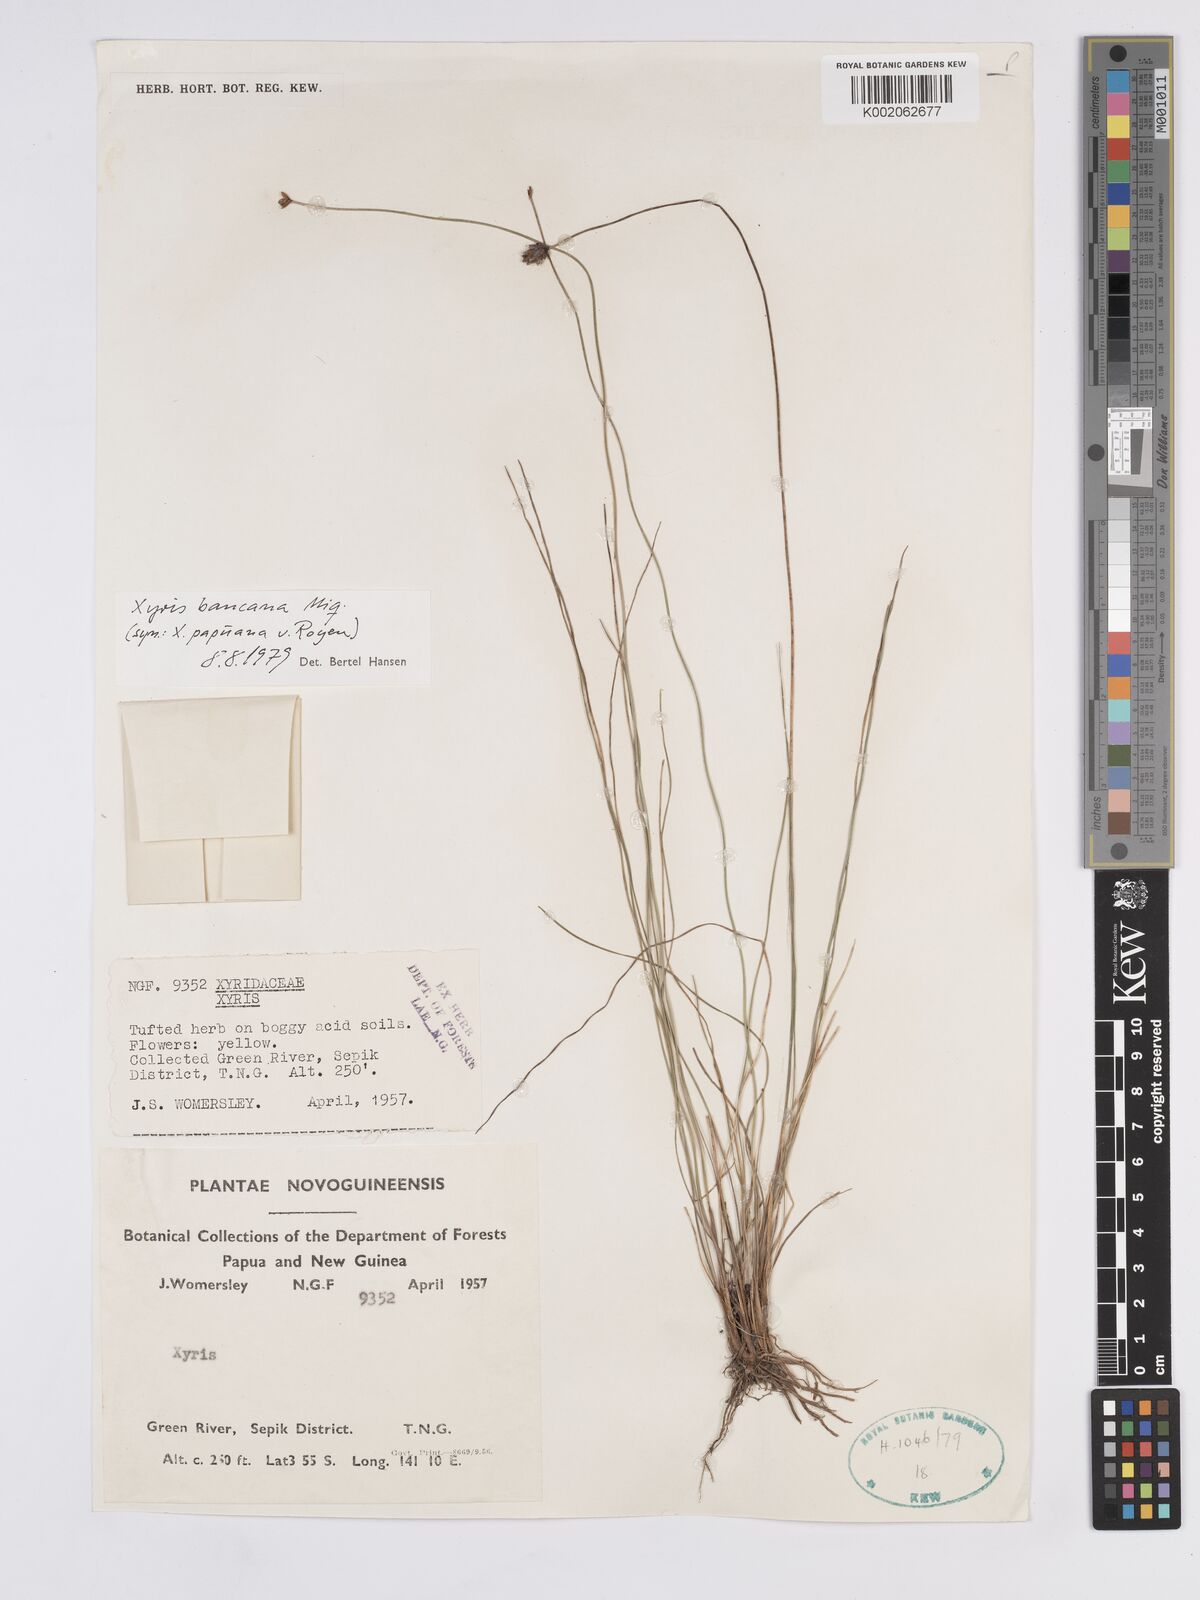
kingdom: Plantae
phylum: Tracheophyta
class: Liliopsida
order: Poales
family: Xyridaceae
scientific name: Xyridaceae
